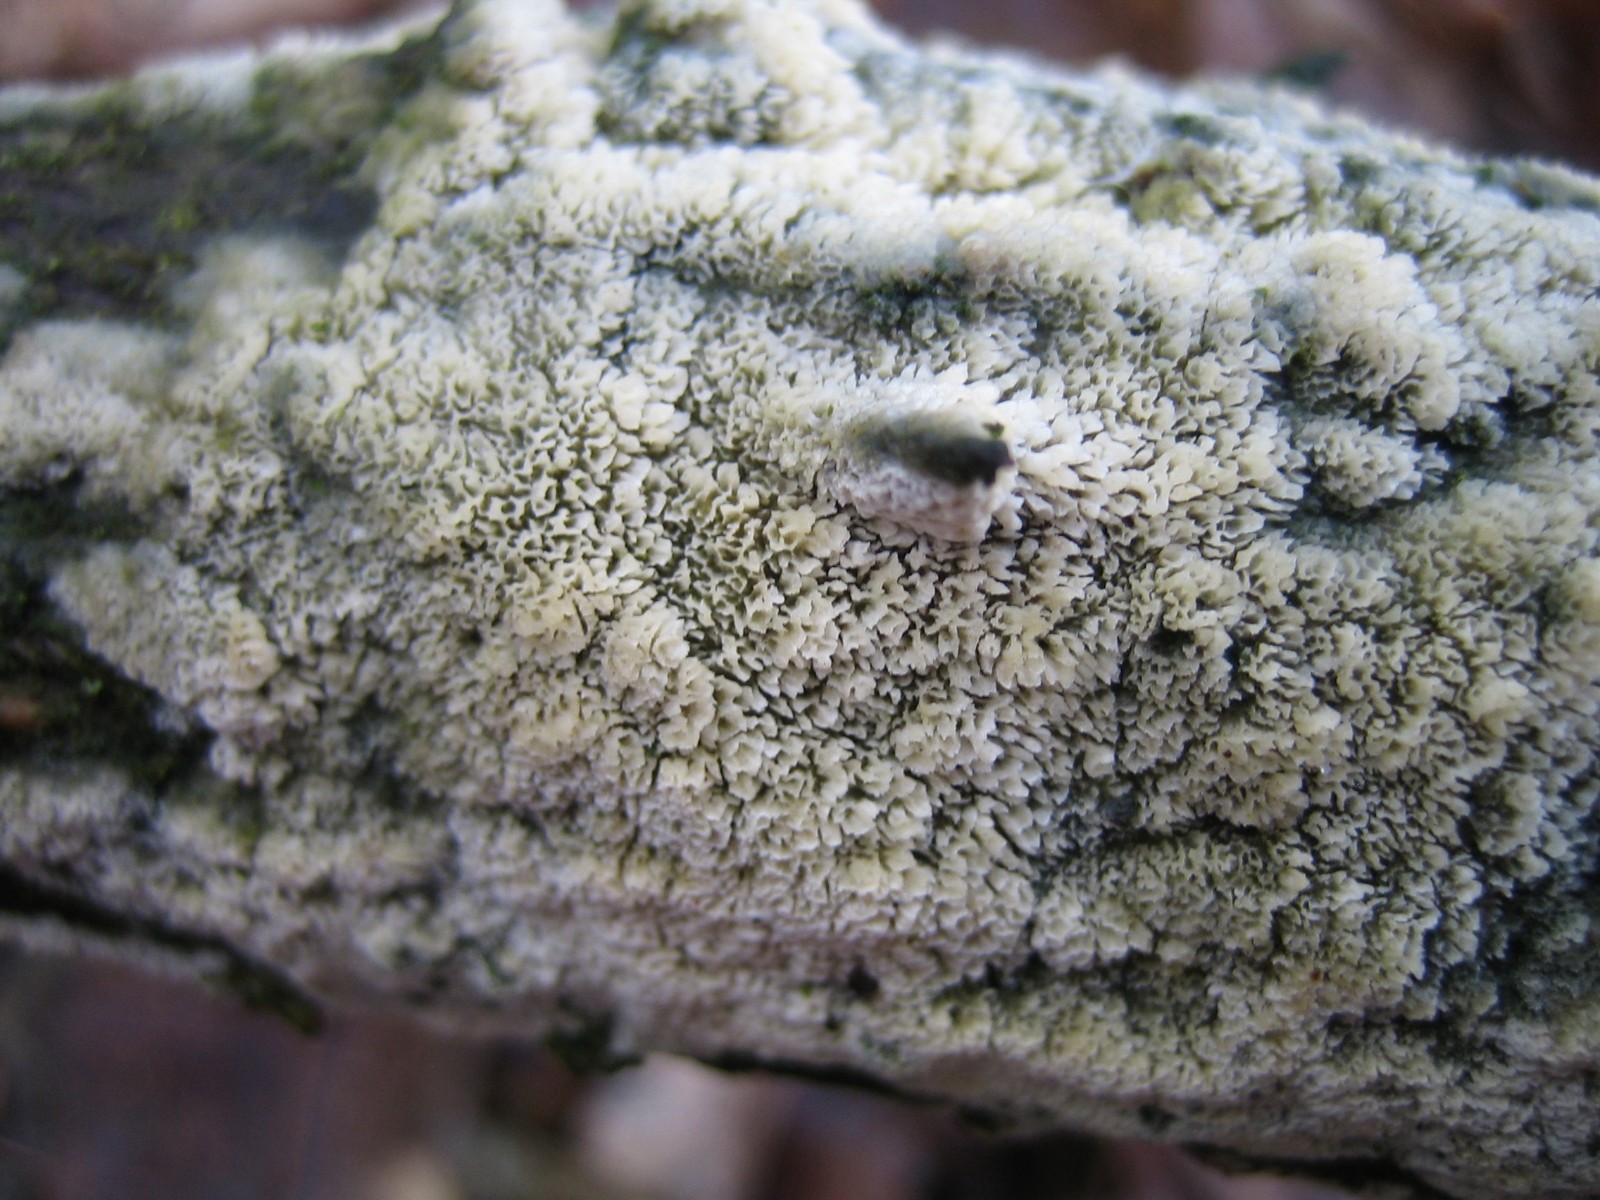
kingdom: Fungi
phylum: Basidiomycota
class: Agaricomycetes
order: Hymenochaetales
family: Schizoporaceae
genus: Schizopora
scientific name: Schizopora paradoxa
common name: hvid tandsvamp
